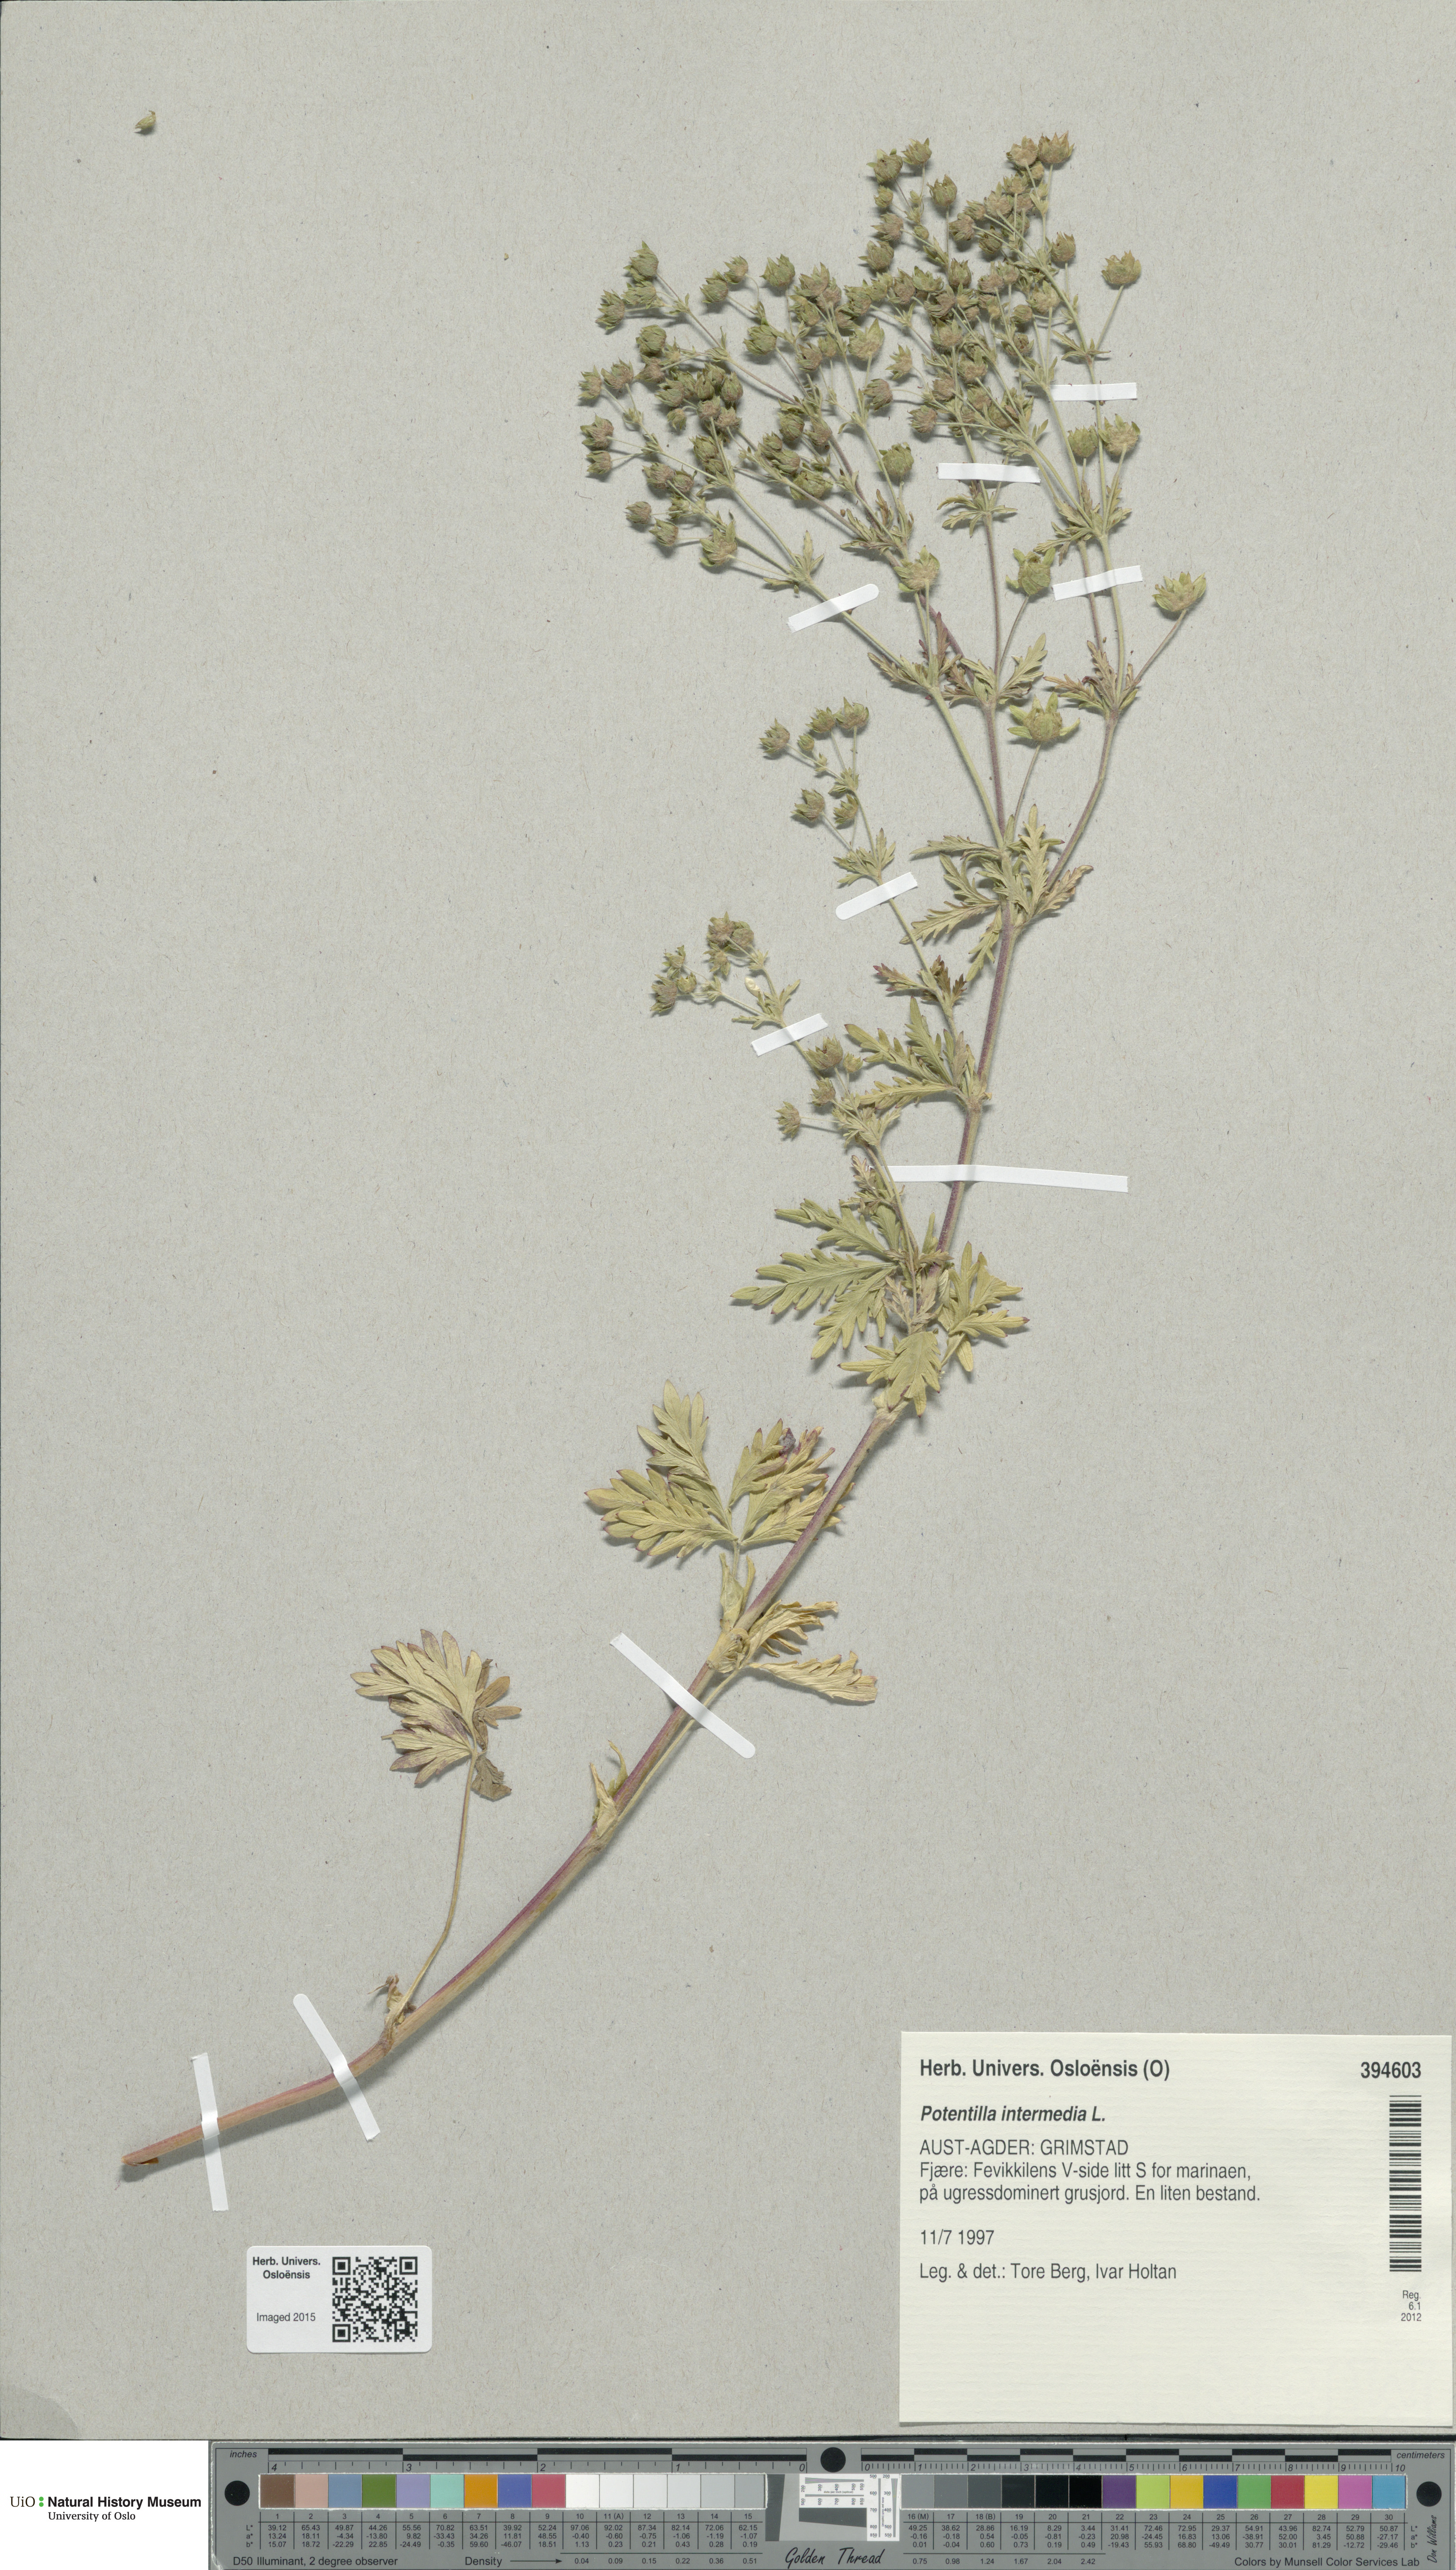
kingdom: Plantae
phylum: Tracheophyta
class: Magnoliopsida
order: Rosales
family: Rosaceae
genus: Potentilla
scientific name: Potentilla intermedia
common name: Downy cinquefoil
